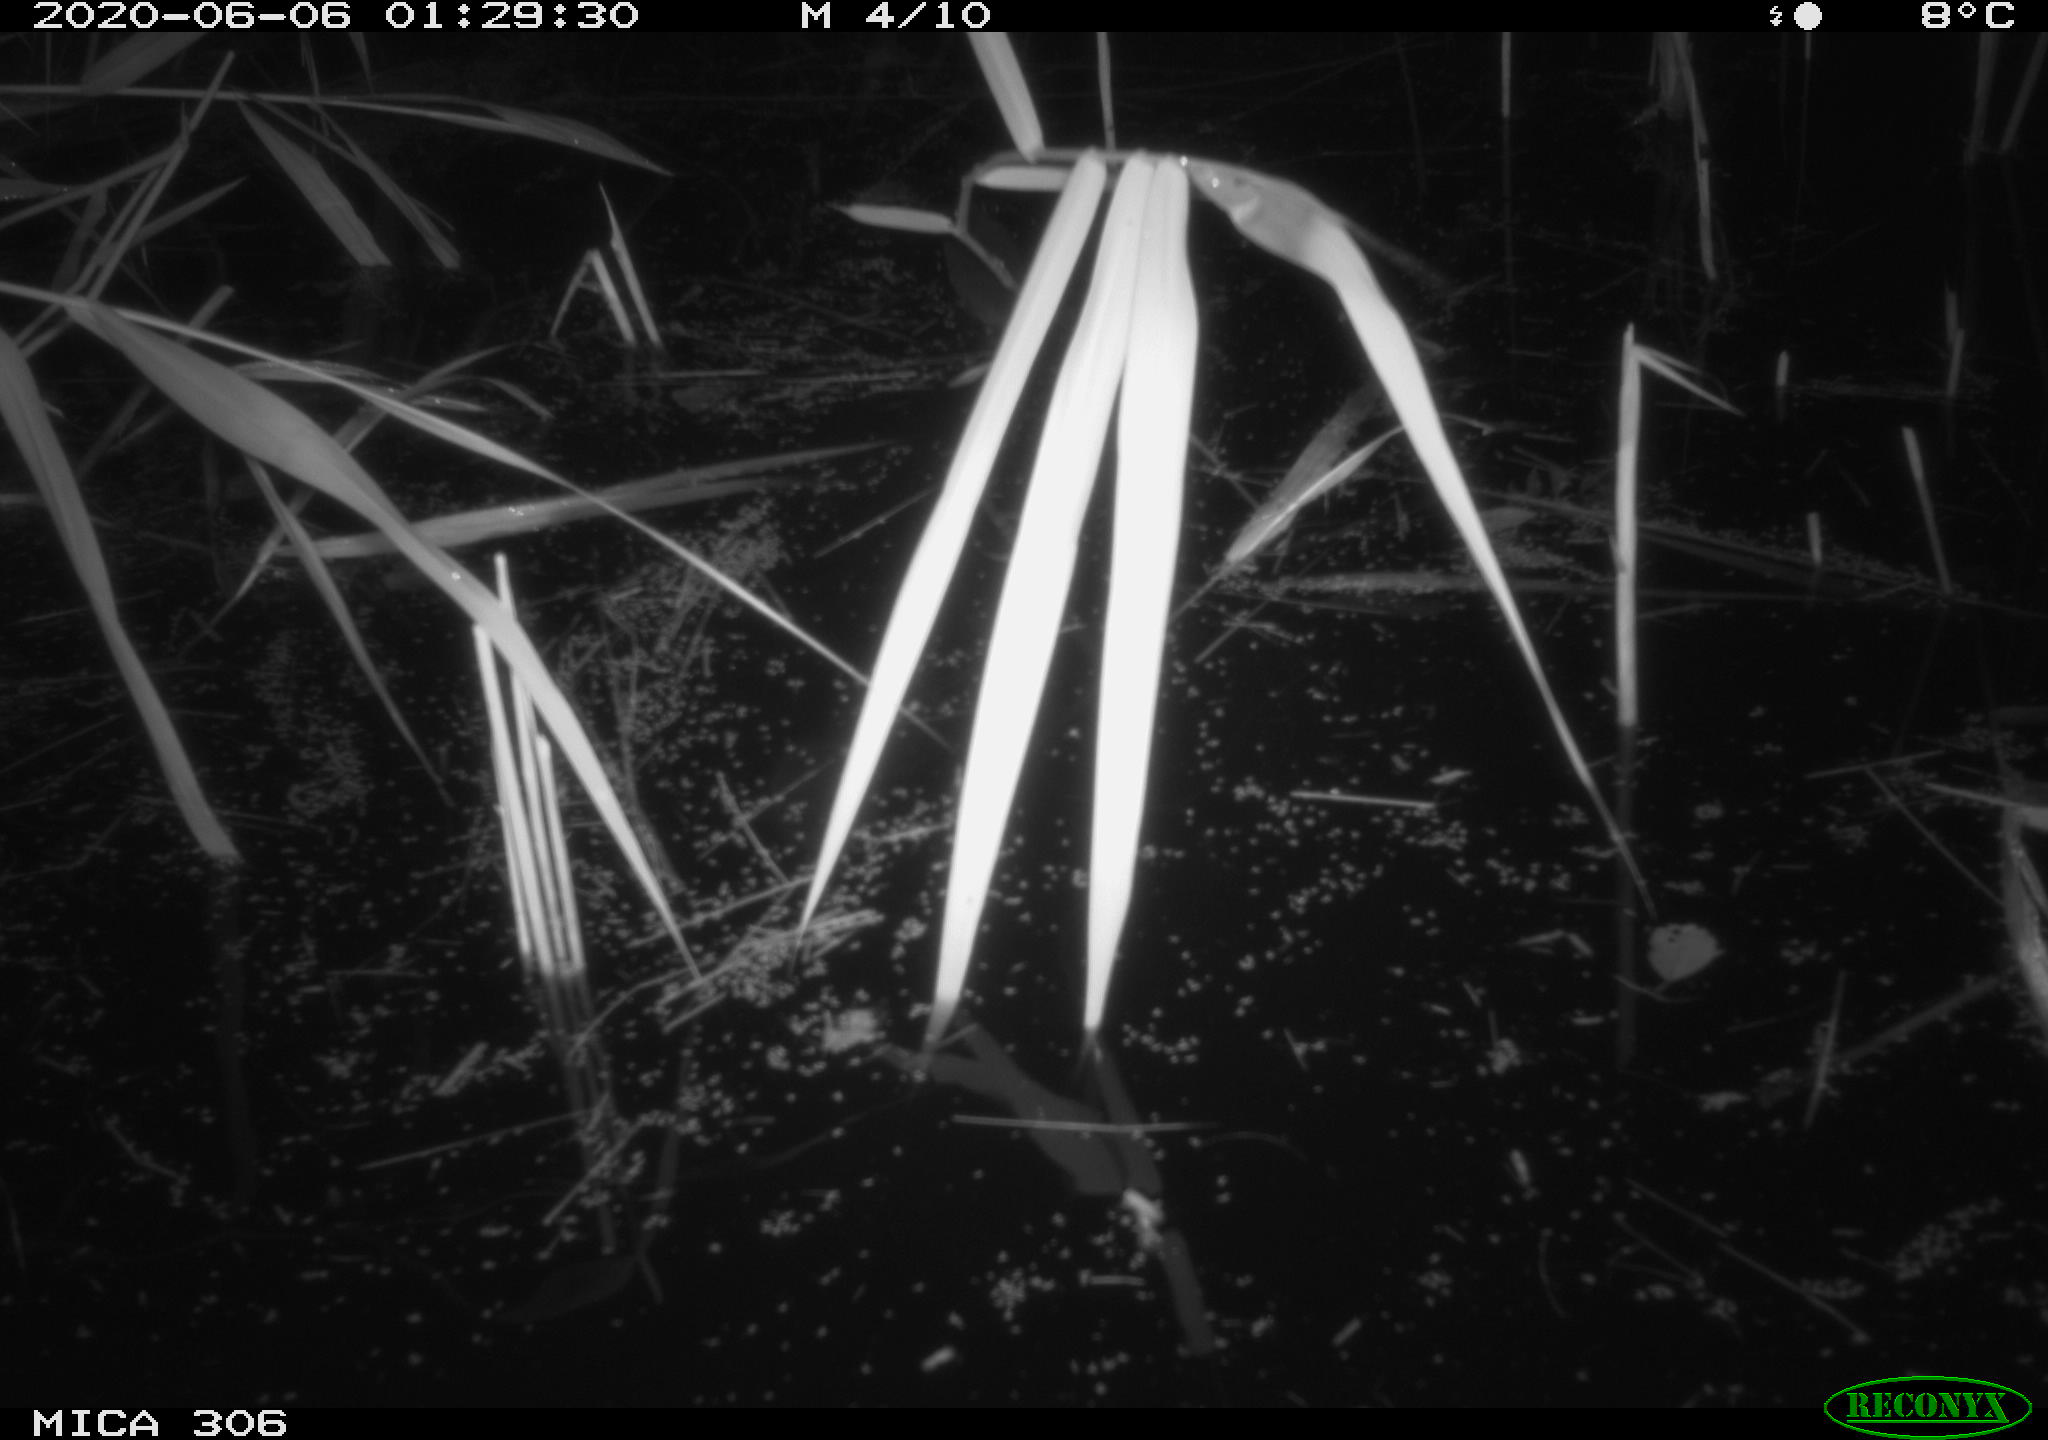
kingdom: Animalia
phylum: Chordata
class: Mammalia
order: Rodentia
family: Muridae
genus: Rattus
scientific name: Rattus norvegicus
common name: Brown rat
